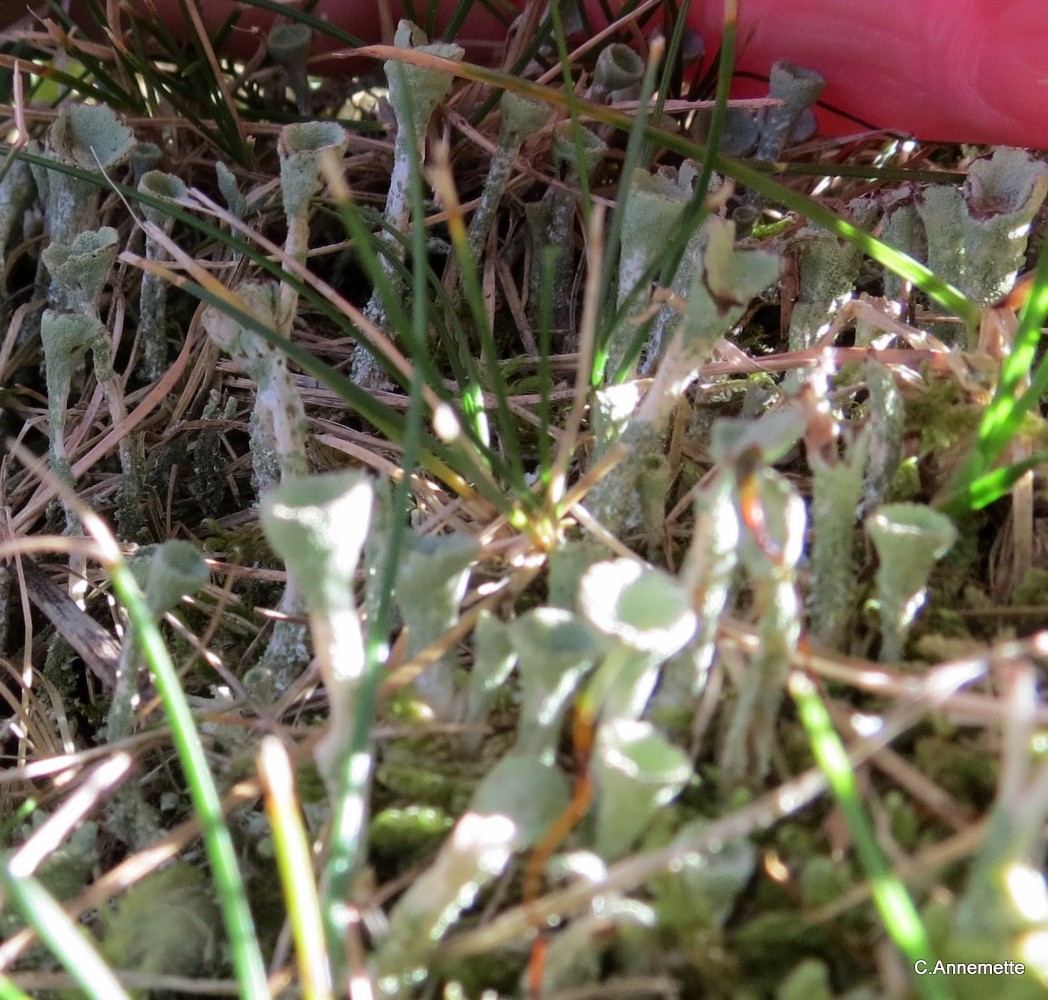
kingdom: Fungi
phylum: Ascomycota
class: Lecanoromycetes
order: Lecanorales
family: Cladoniaceae
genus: Cladonia
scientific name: Cladonia
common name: brungrøn bægerlav
